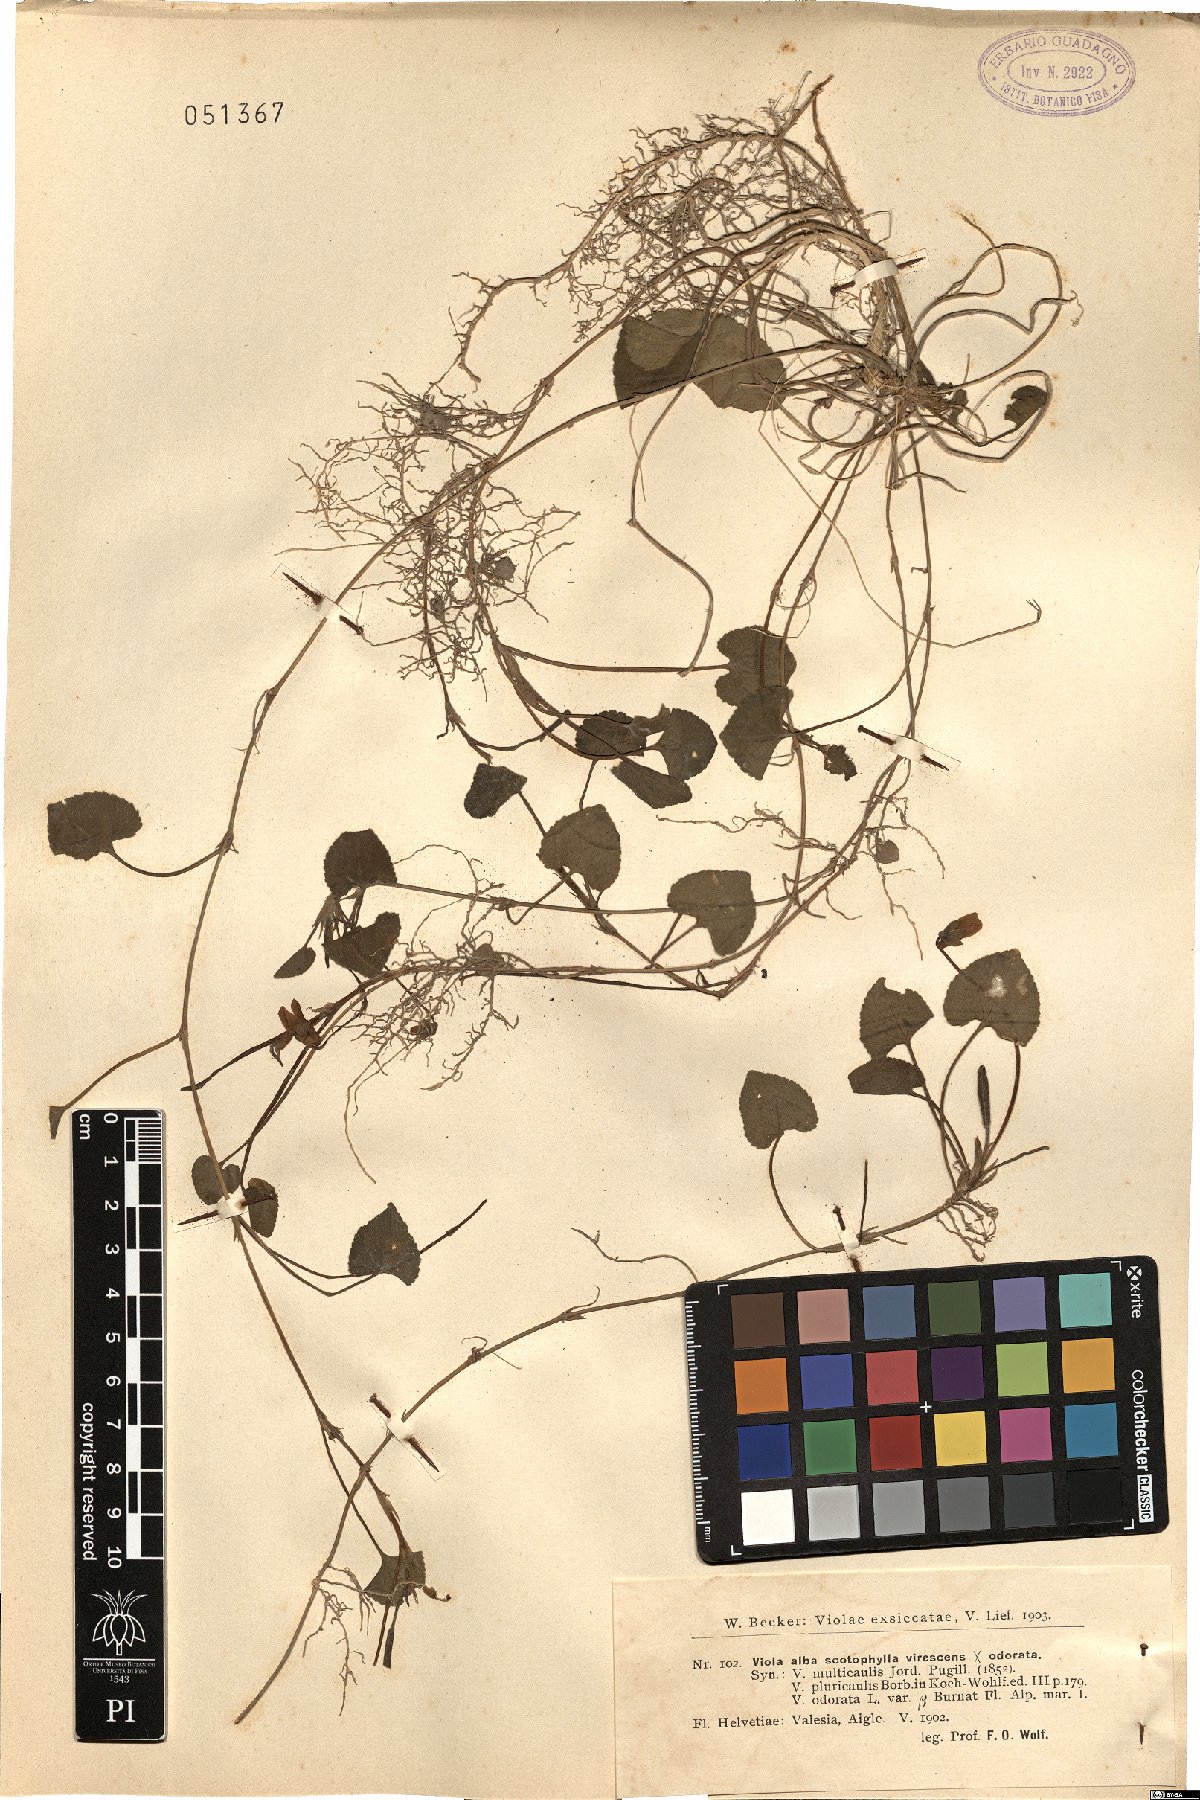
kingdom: Plantae
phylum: Tracheophyta
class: Magnoliopsida
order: Malpighiales
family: Violaceae
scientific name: Violaceae
